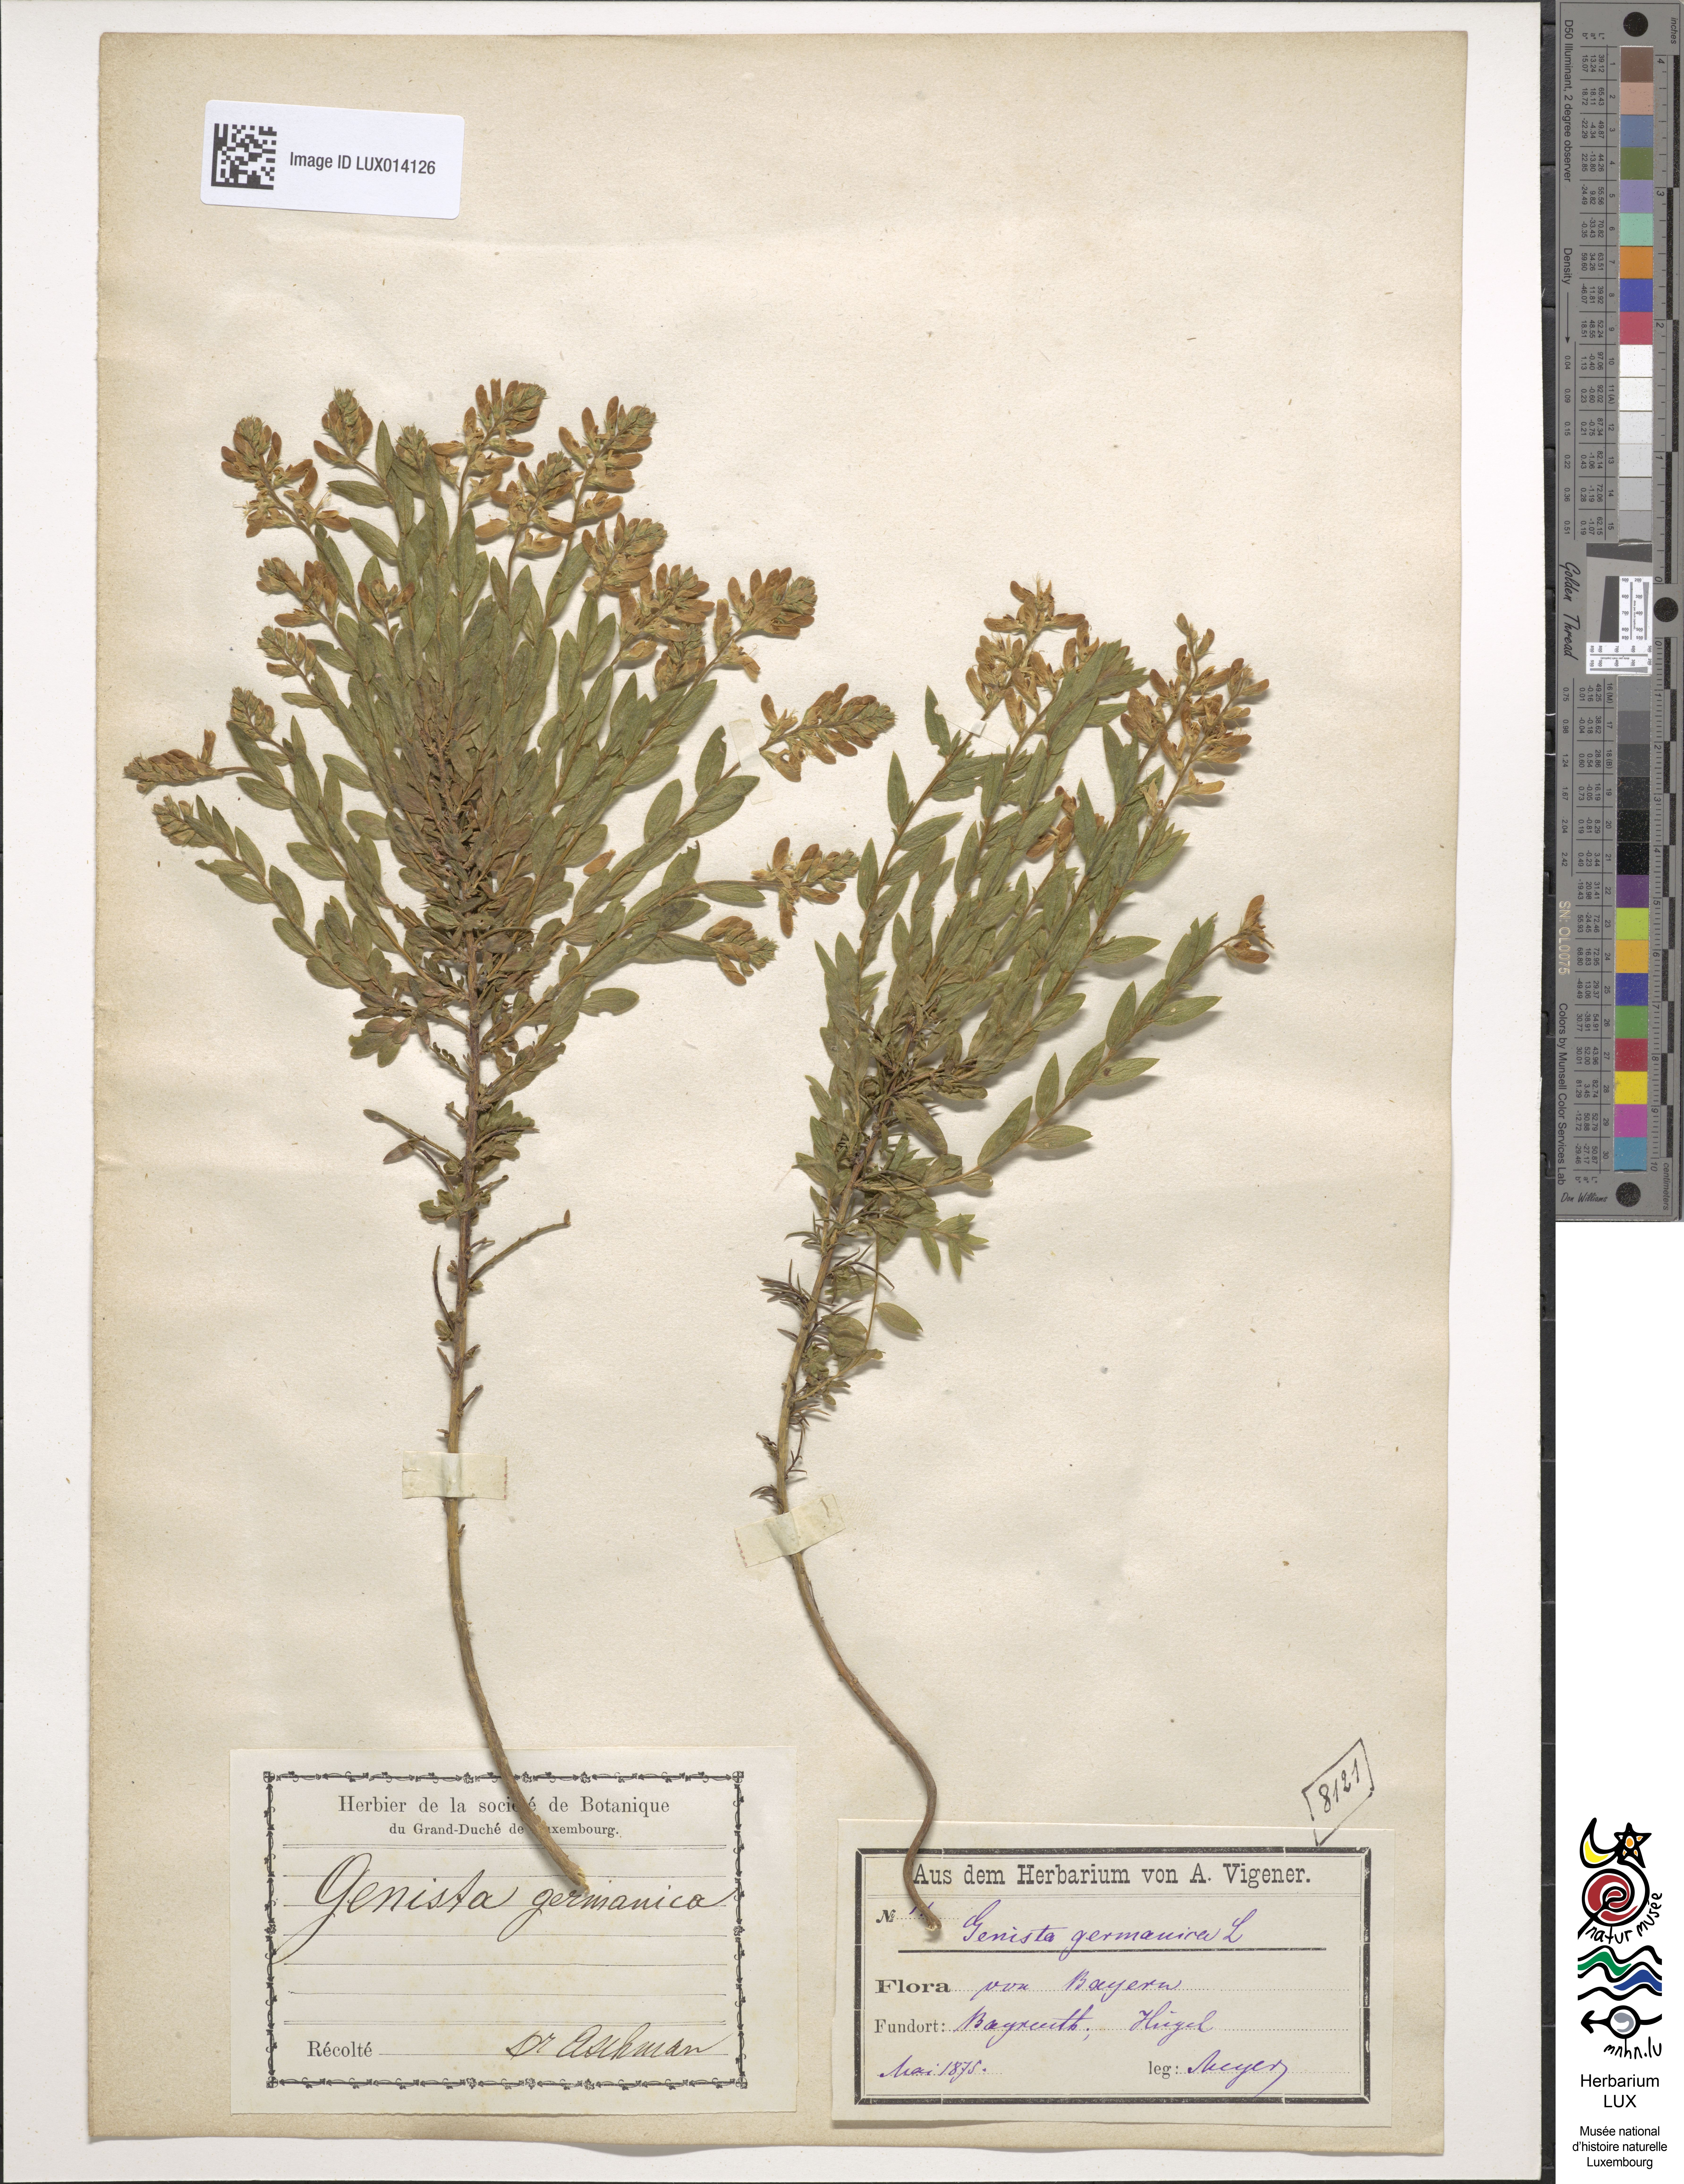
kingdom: Plantae
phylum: Tracheophyta
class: Magnoliopsida
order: Fabales
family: Fabaceae
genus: Genista
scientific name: Genista germanica
